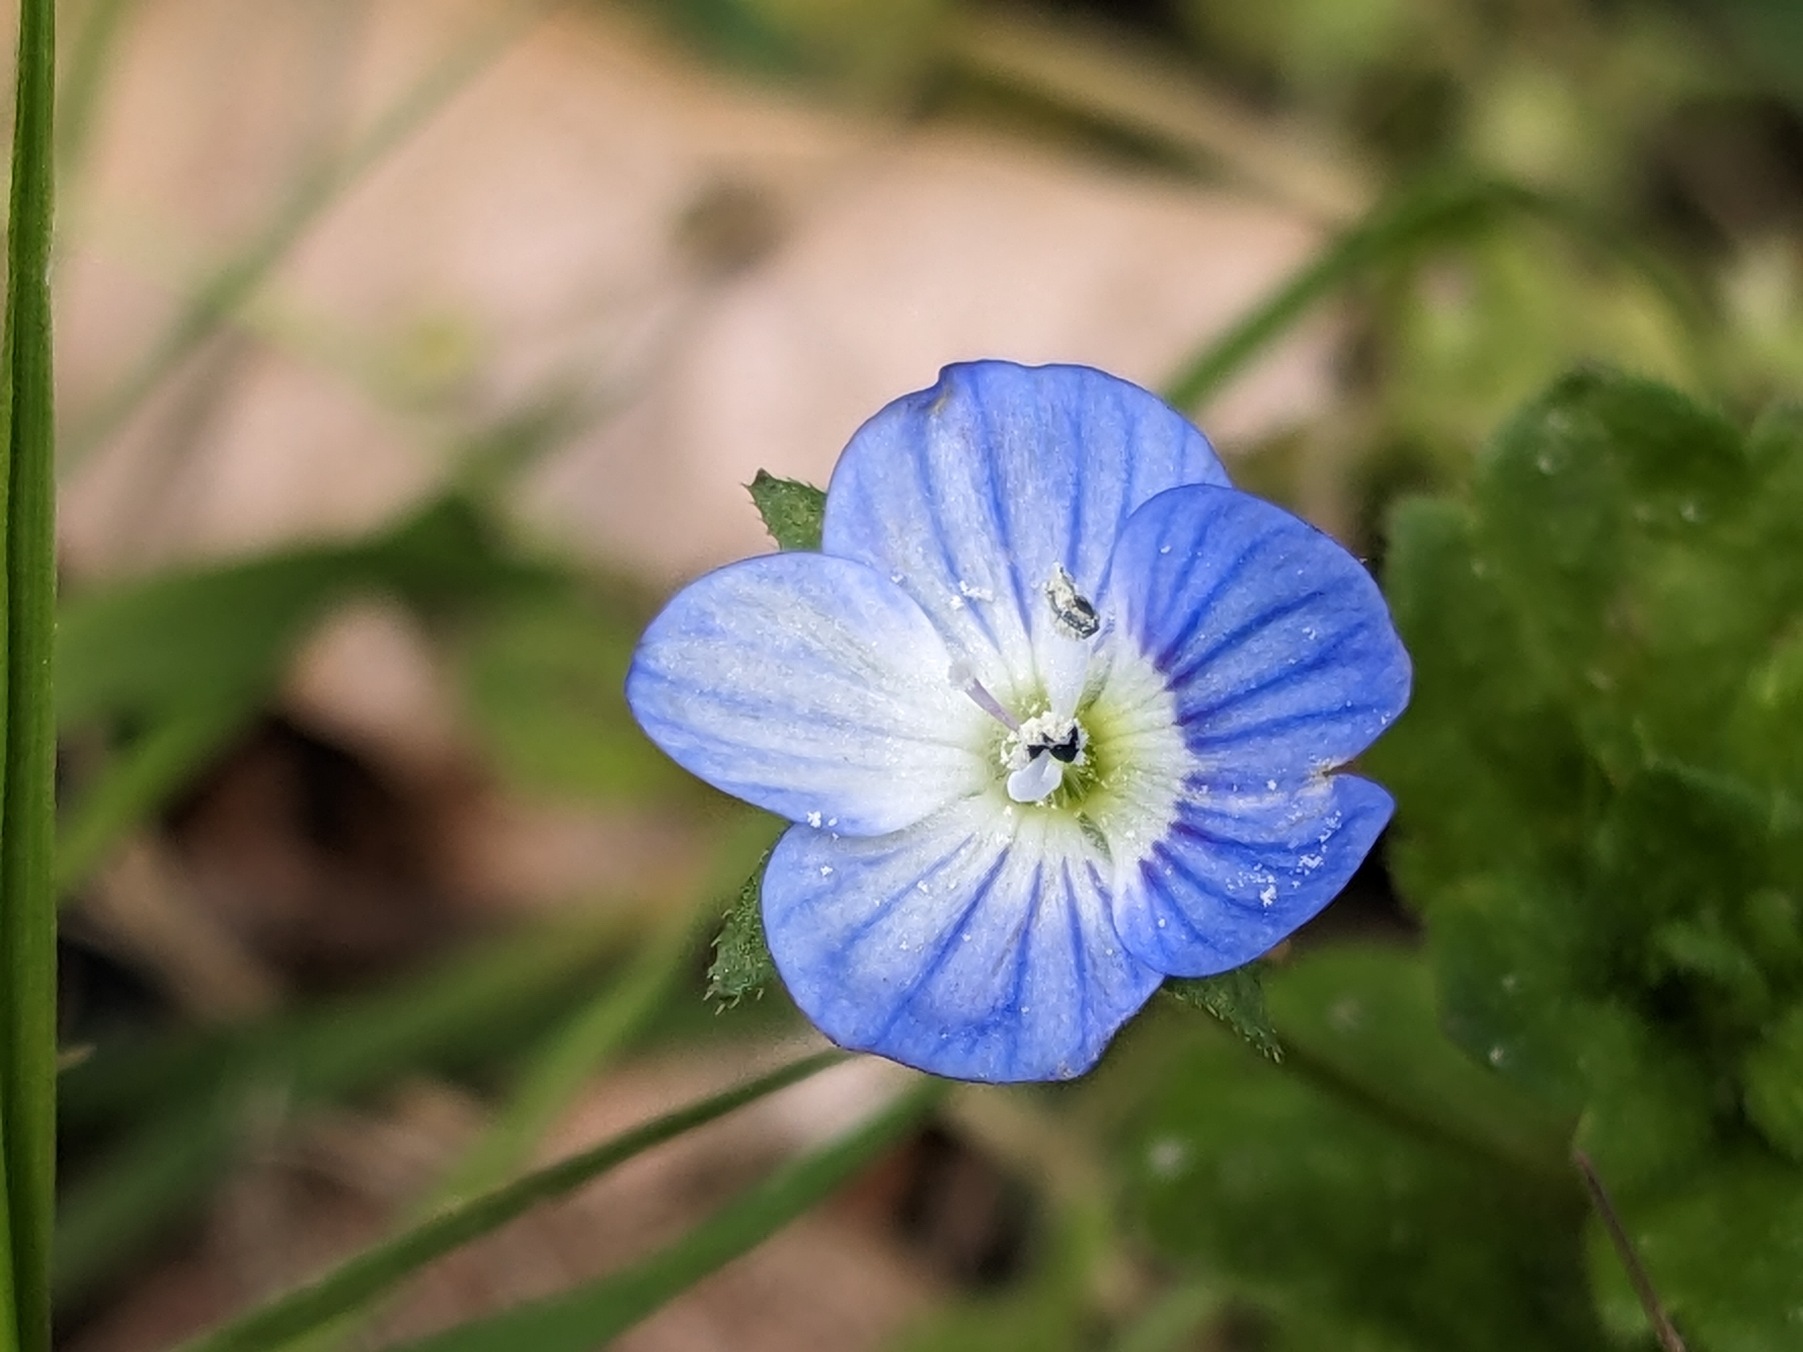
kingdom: Plantae
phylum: Tracheophyta
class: Magnoliopsida
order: Lamiales
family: Plantaginaceae
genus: Veronica
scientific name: Veronica persica
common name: Storkronet ærenpris
